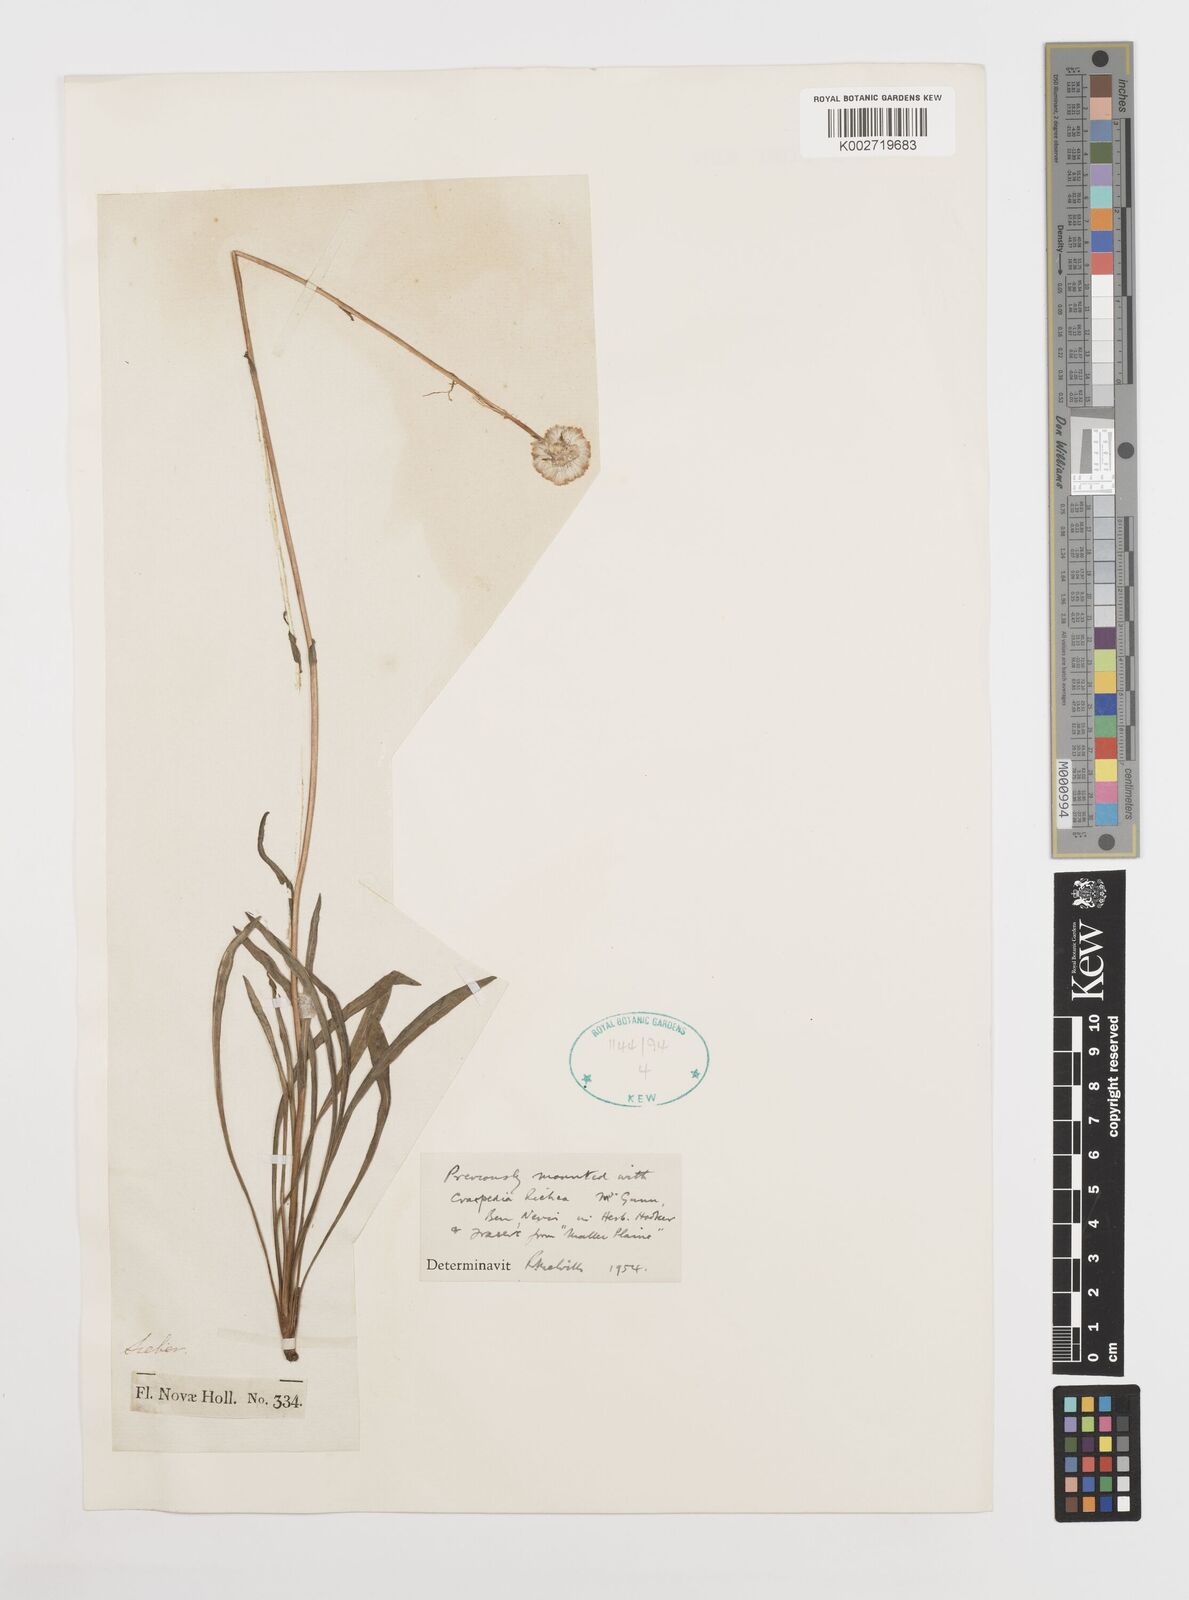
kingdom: Plantae
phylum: Tracheophyta
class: Magnoliopsida
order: Asterales
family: Asteraceae
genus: Craspedia
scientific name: Craspedia glauca
